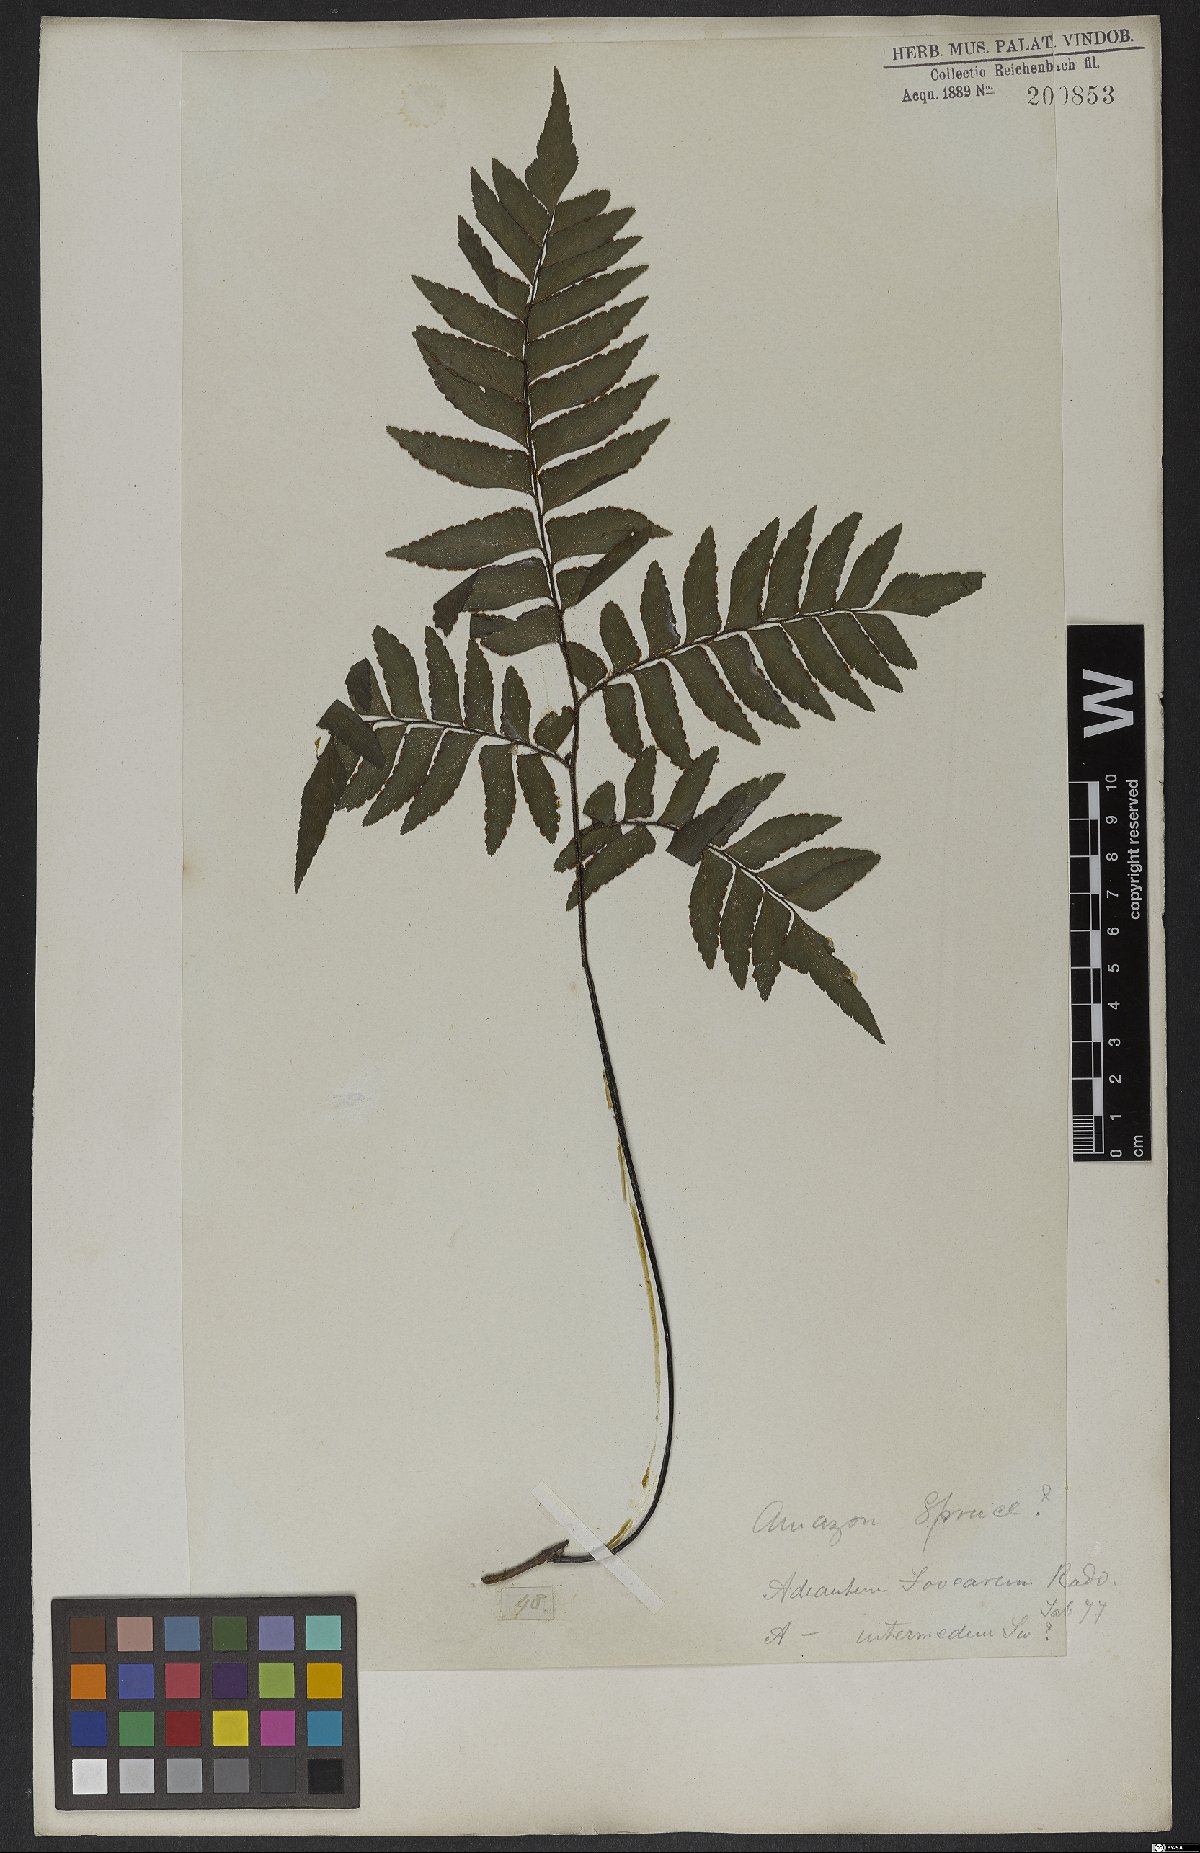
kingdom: Plantae
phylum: Tracheophyta
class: Polypodiopsida
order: Polypodiales
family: Pteridaceae
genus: Adiantum
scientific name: Adiantum latifolium
